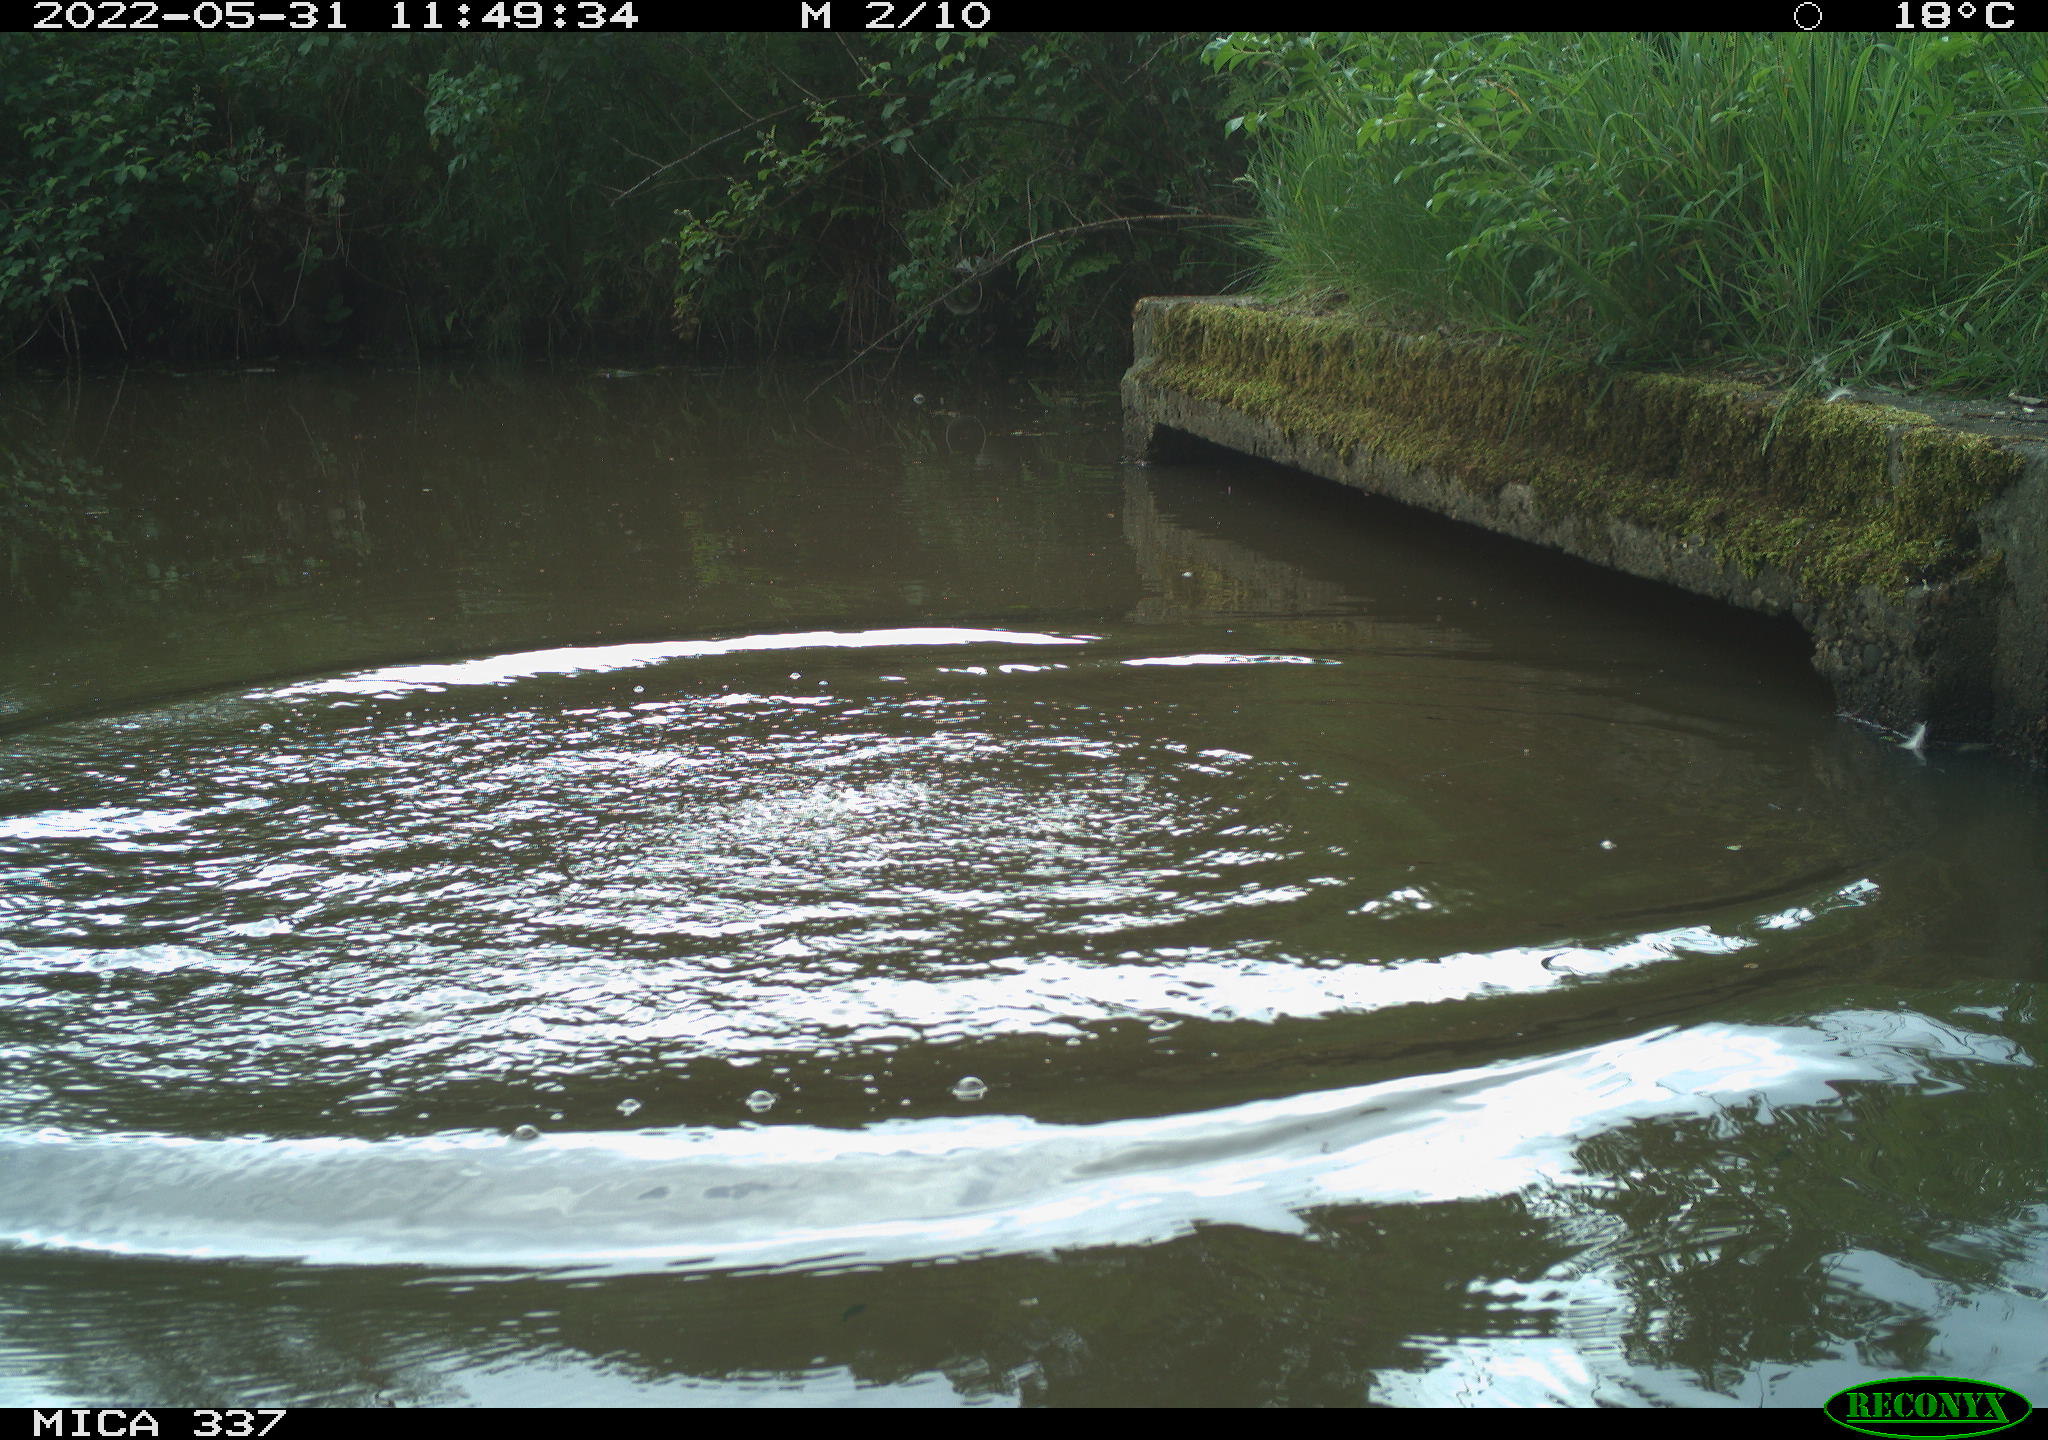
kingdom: Animalia
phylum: Chordata
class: Aves
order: Anseriformes
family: Anatidae
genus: Anas
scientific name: Anas platyrhynchos
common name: Mallard
